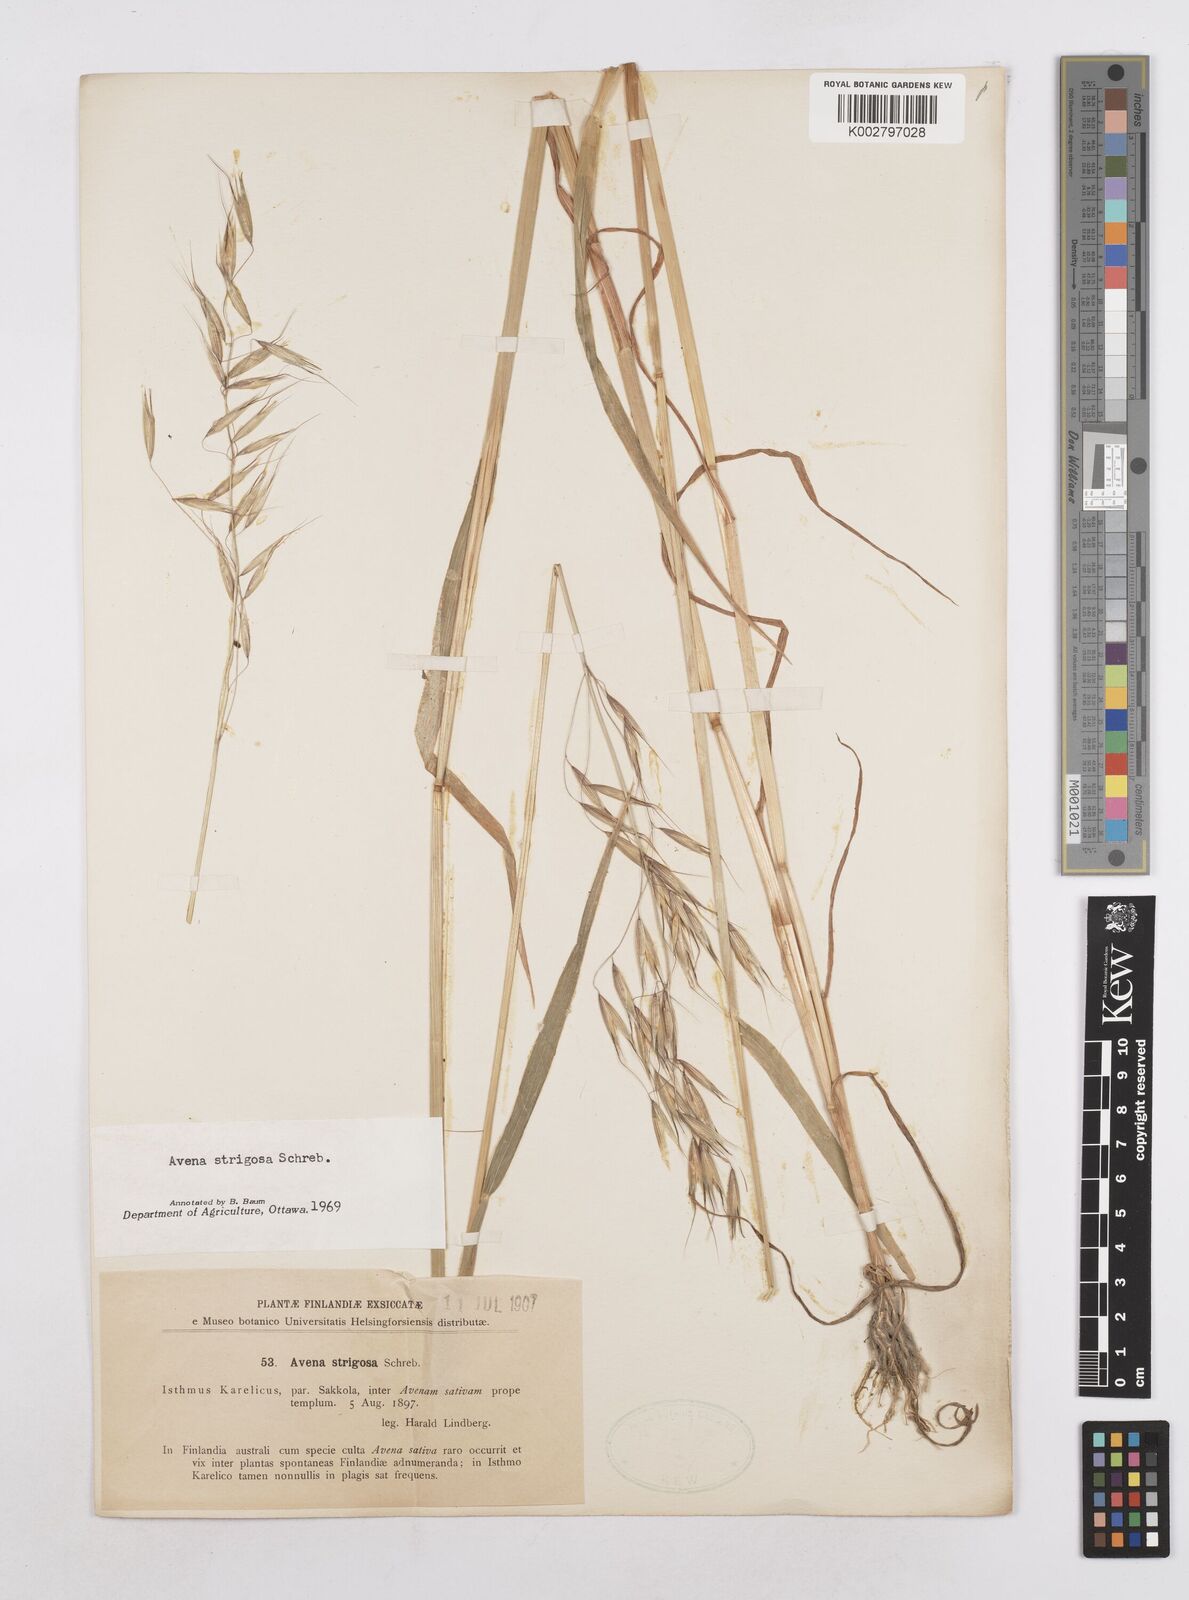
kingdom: Plantae
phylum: Tracheophyta
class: Liliopsida
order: Poales
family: Poaceae
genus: Avena
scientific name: Avena strigosa
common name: Bristle oat
